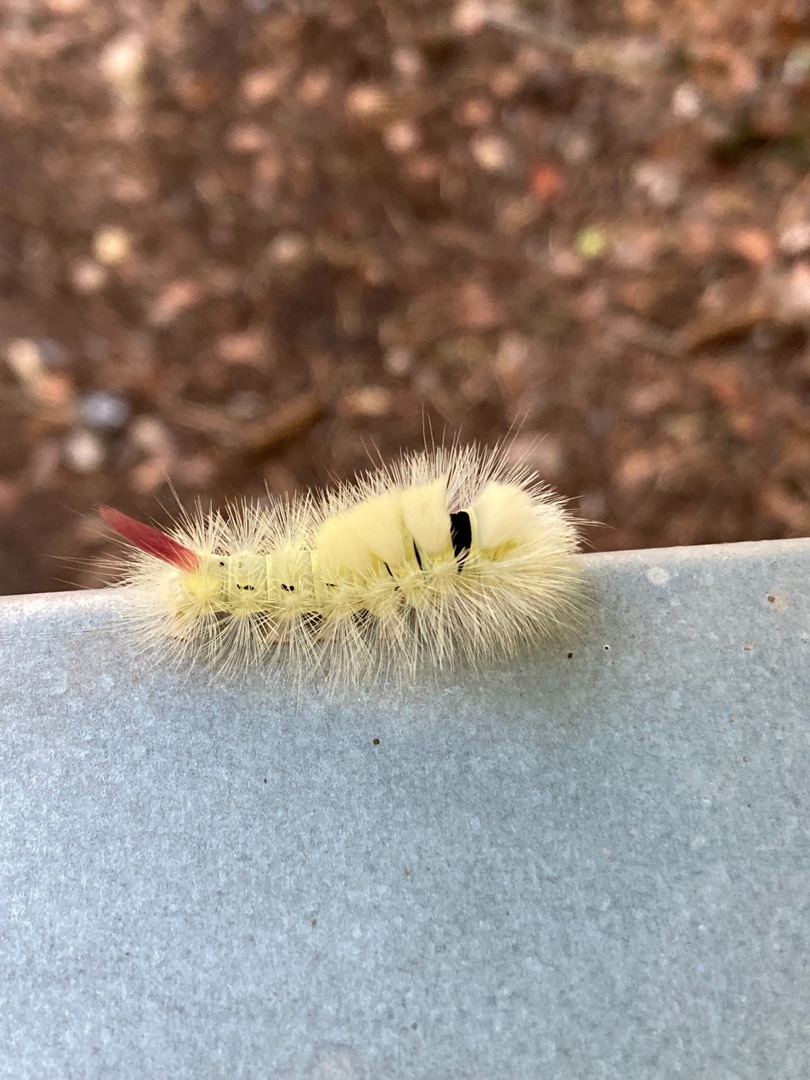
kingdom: Animalia
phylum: Arthropoda
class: Insecta
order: Lepidoptera
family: Erebidae
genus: Calliteara
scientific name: Calliteara pudibunda
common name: Bøgenonne
